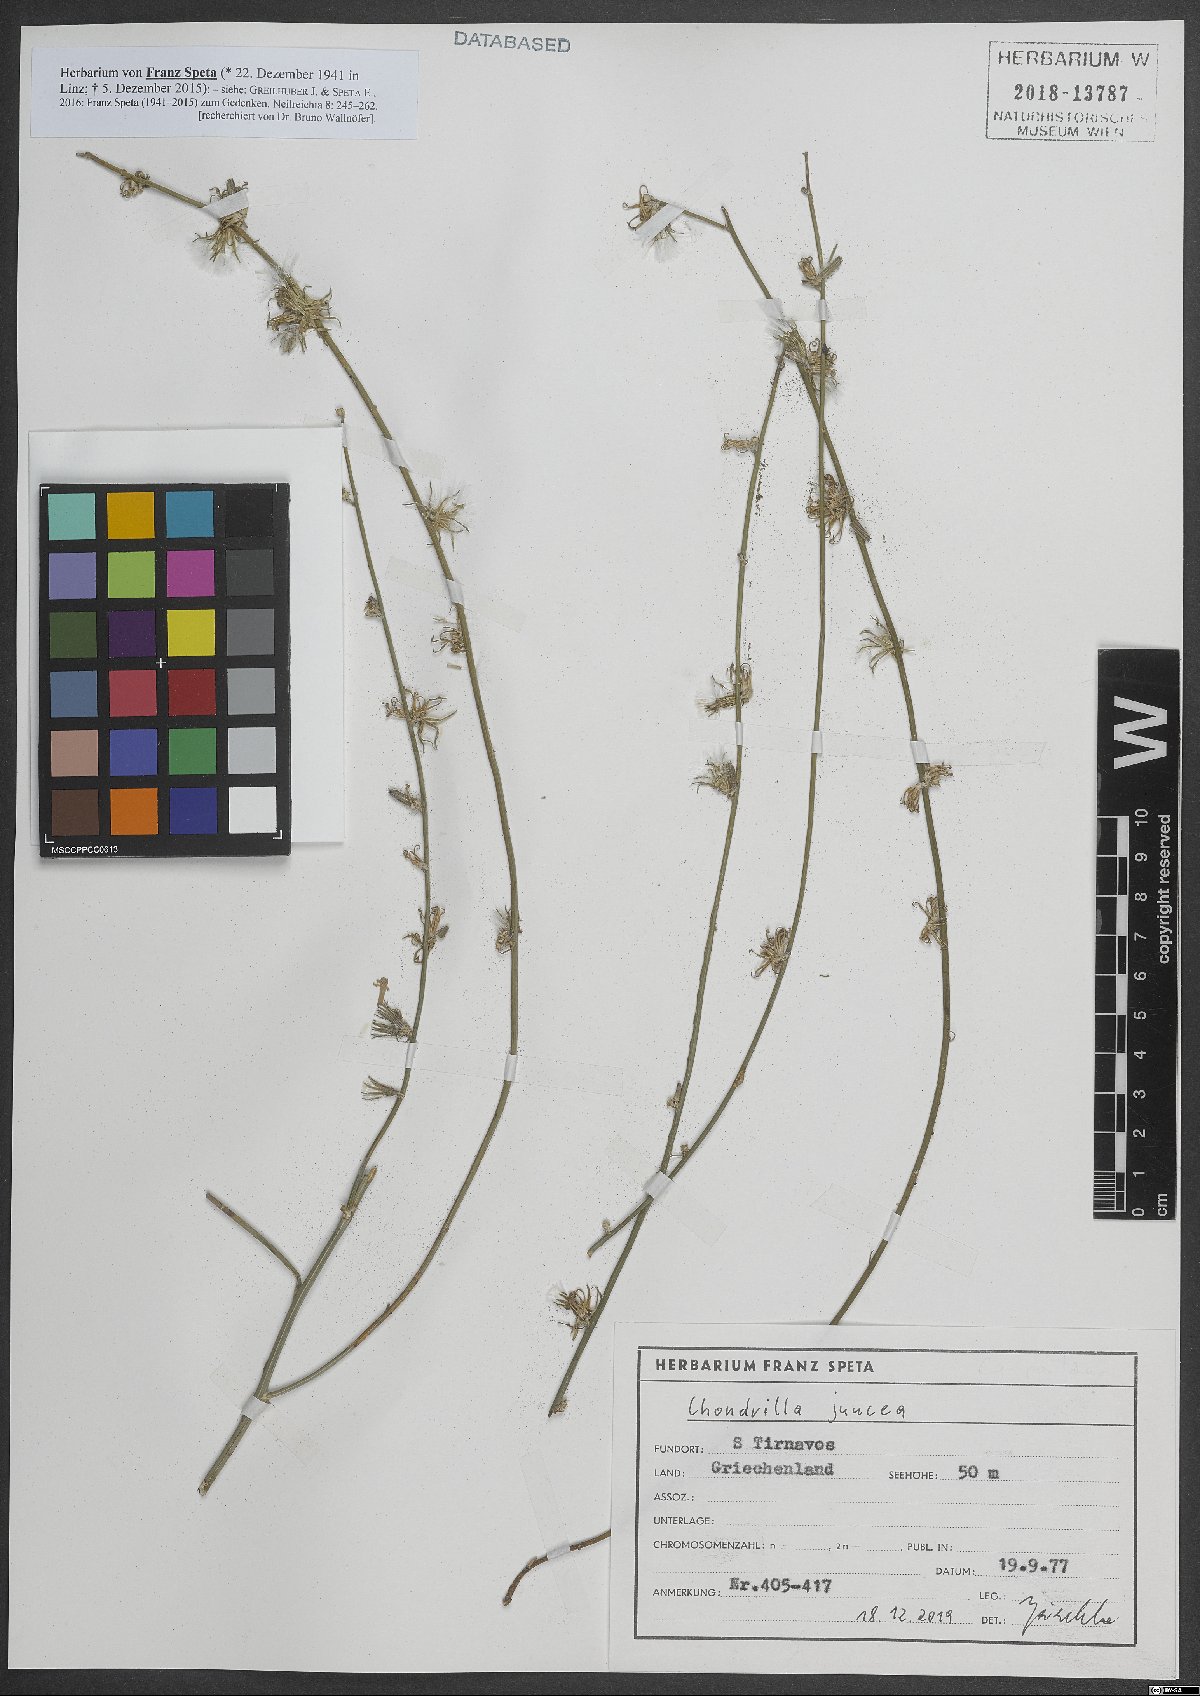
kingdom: Plantae
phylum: Tracheophyta
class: Magnoliopsida
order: Asterales
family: Asteraceae
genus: Chondrilla
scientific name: Chondrilla juncea
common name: Skeleton weed
